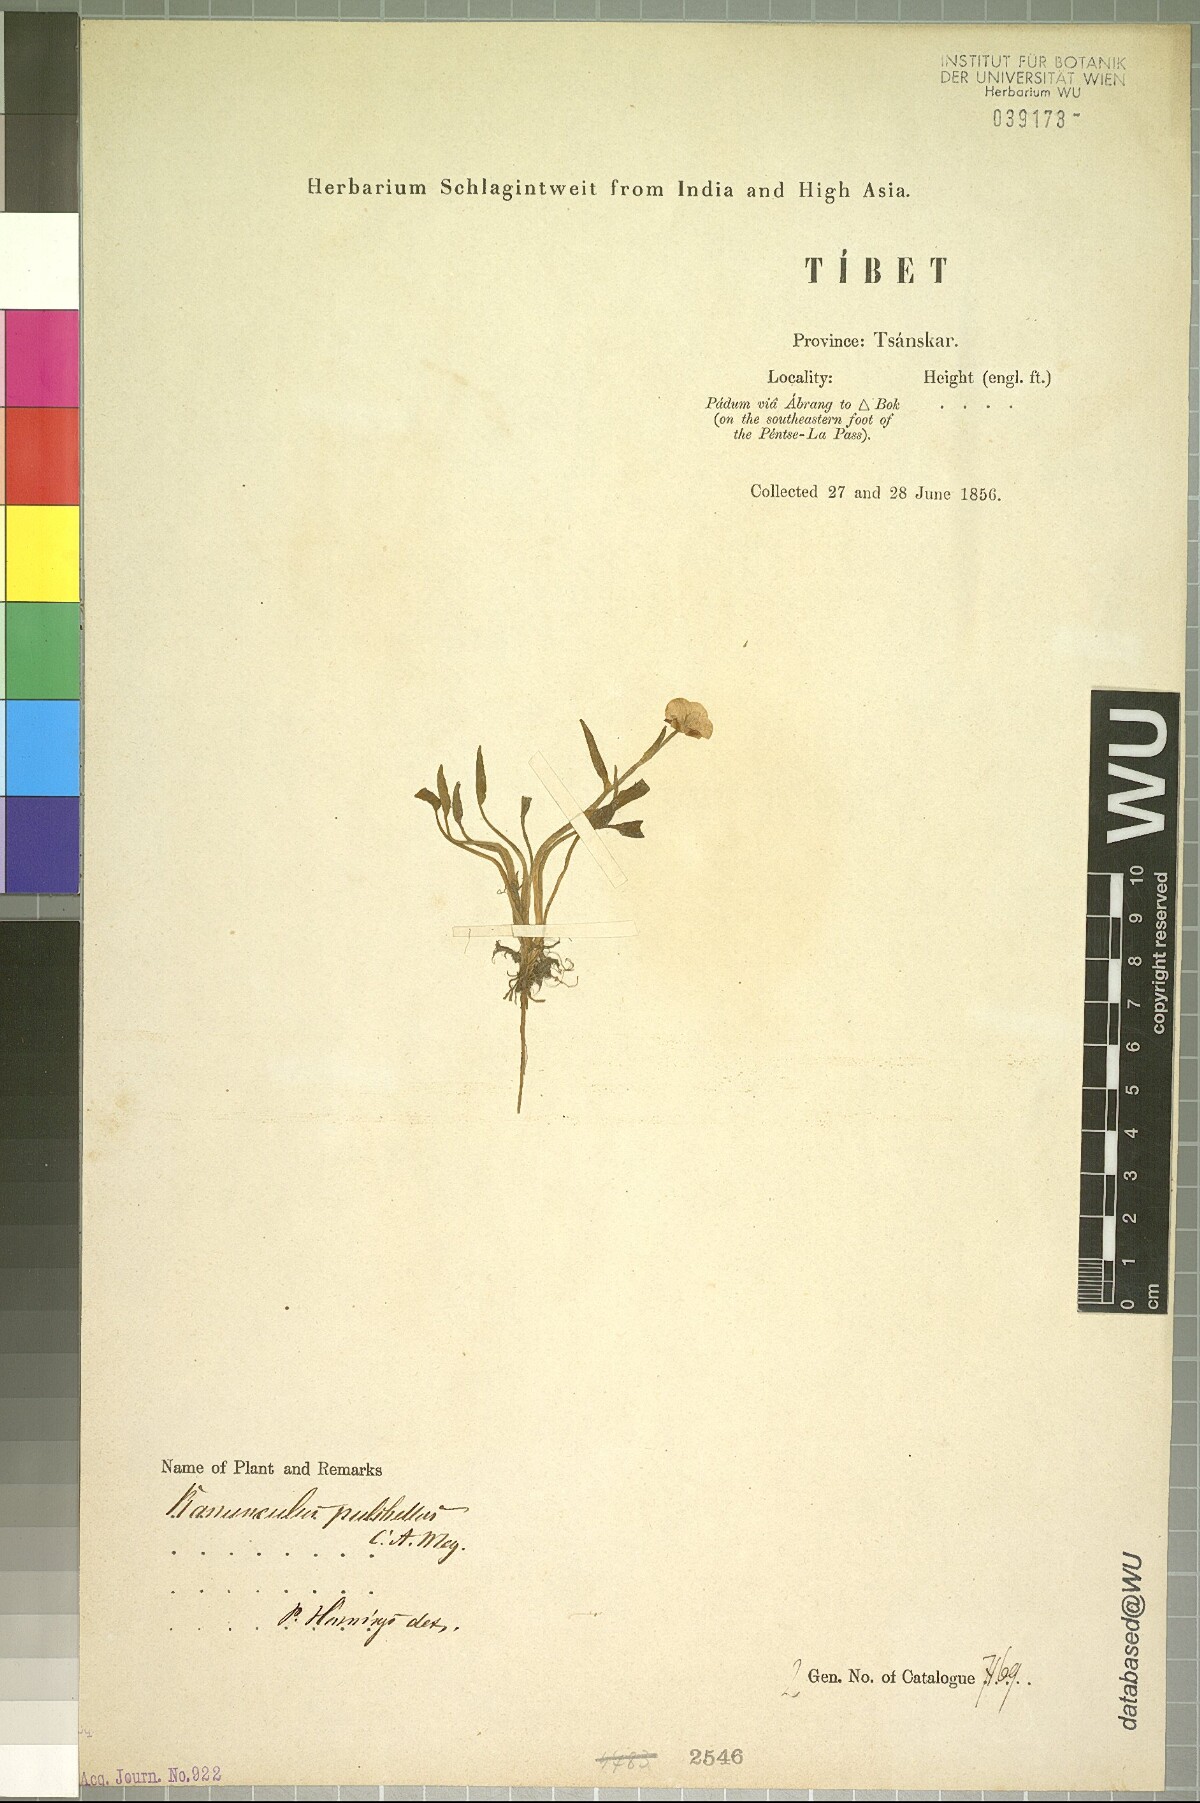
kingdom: Plantae
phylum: Tracheophyta
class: Magnoliopsida
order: Ranunculales
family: Ranunculaceae
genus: Ranunculus
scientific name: Ranunculus pulchellus
